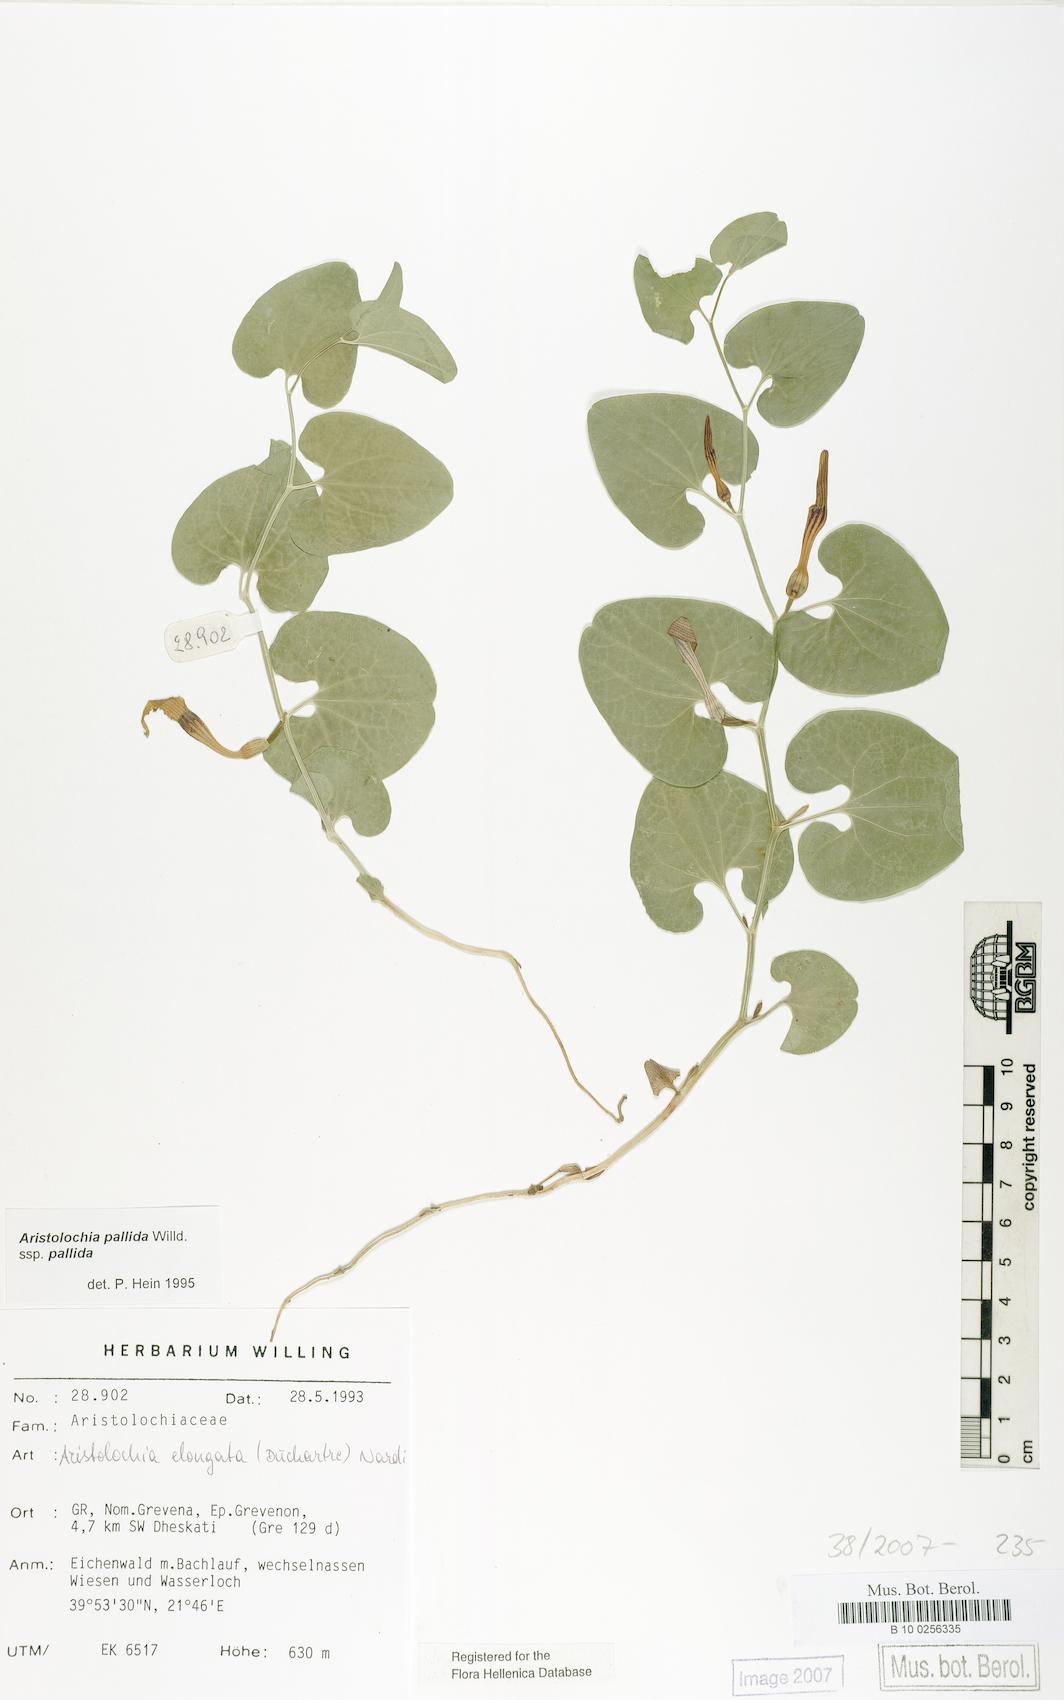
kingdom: Plantae
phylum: Tracheophyta
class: Magnoliopsida
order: Piperales
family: Aristolochiaceae
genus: Aristolochia
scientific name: Aristolochia nardiana
